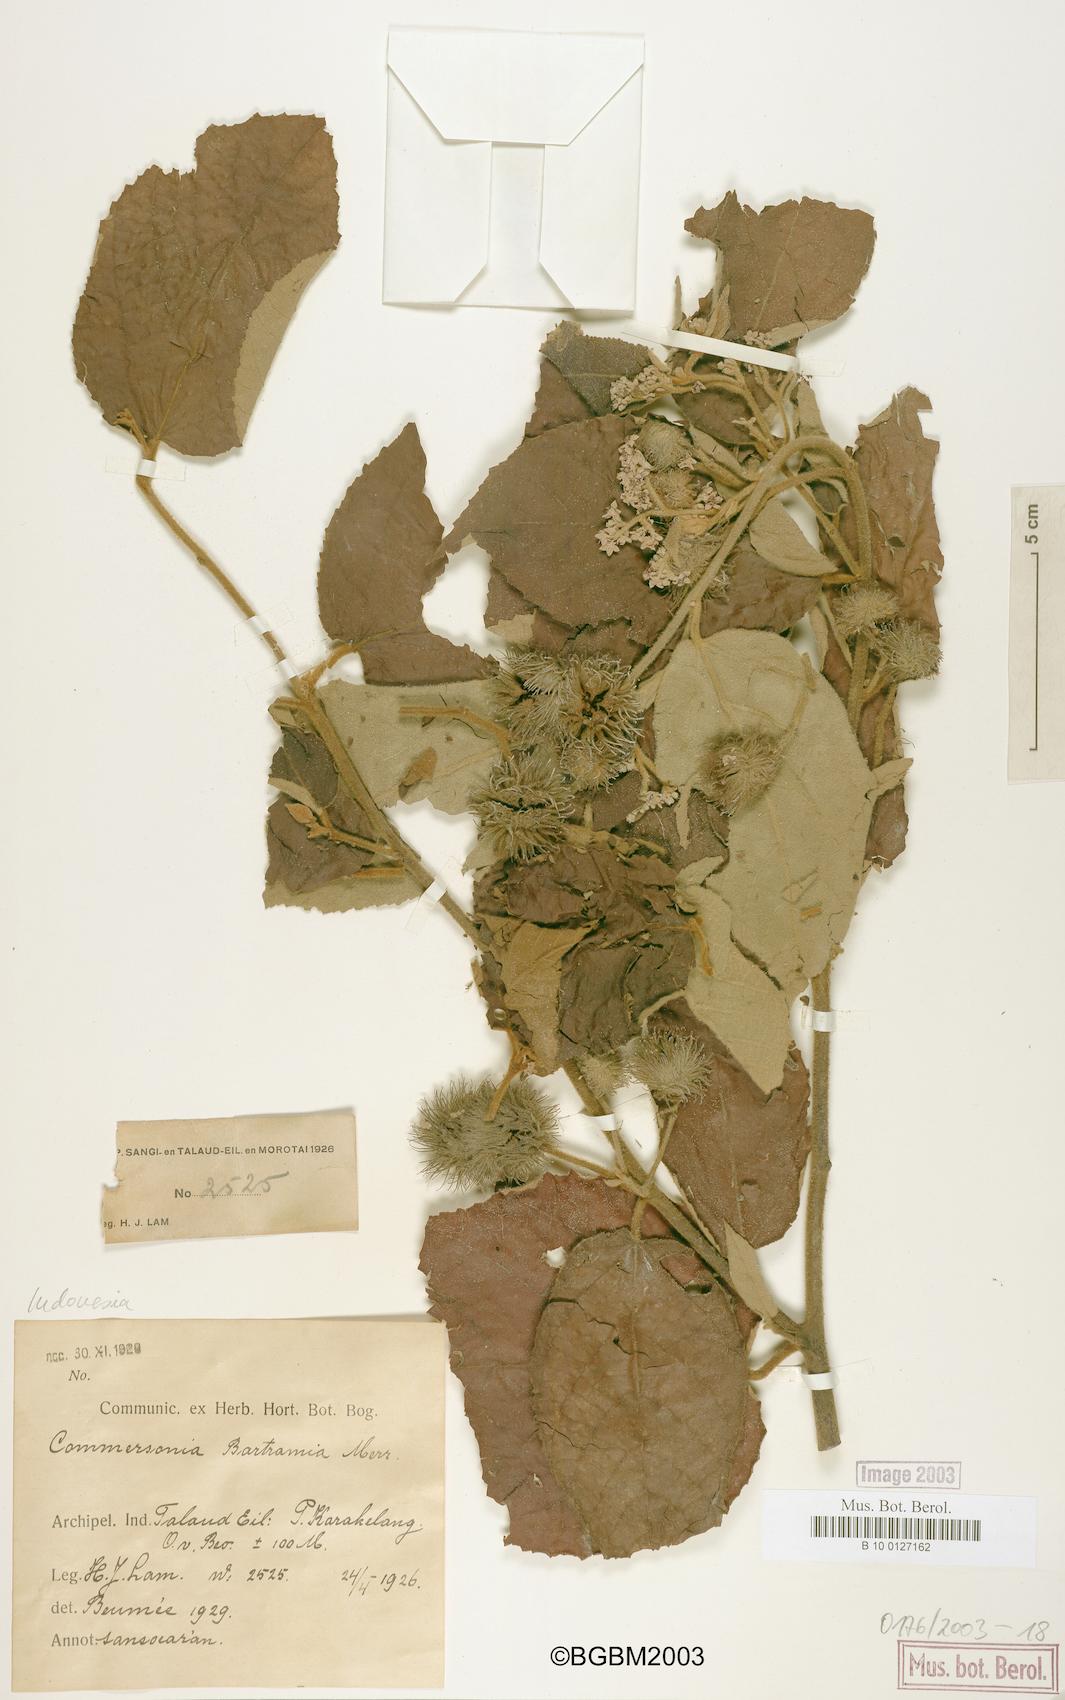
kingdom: Plantae
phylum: Tracheophyta
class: Magnoliopsida
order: Malvales
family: Malvaceae
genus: Commersonia
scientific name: Commersonia bartramia
